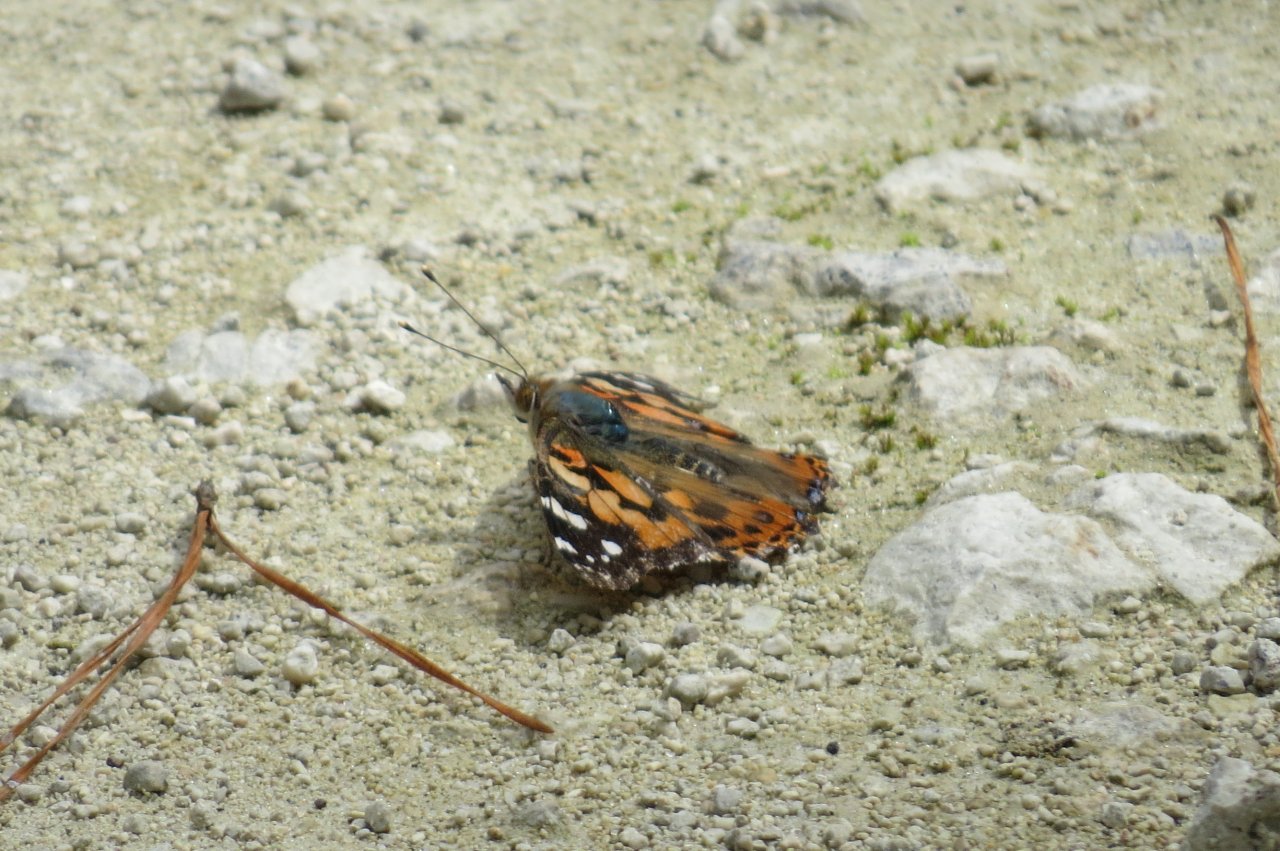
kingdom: Animalia
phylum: Arthropoda
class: Insecta
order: Lepidoptera
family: Nymphalidae
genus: Vanessa
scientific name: Vanessa cardui
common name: Painted Lady
